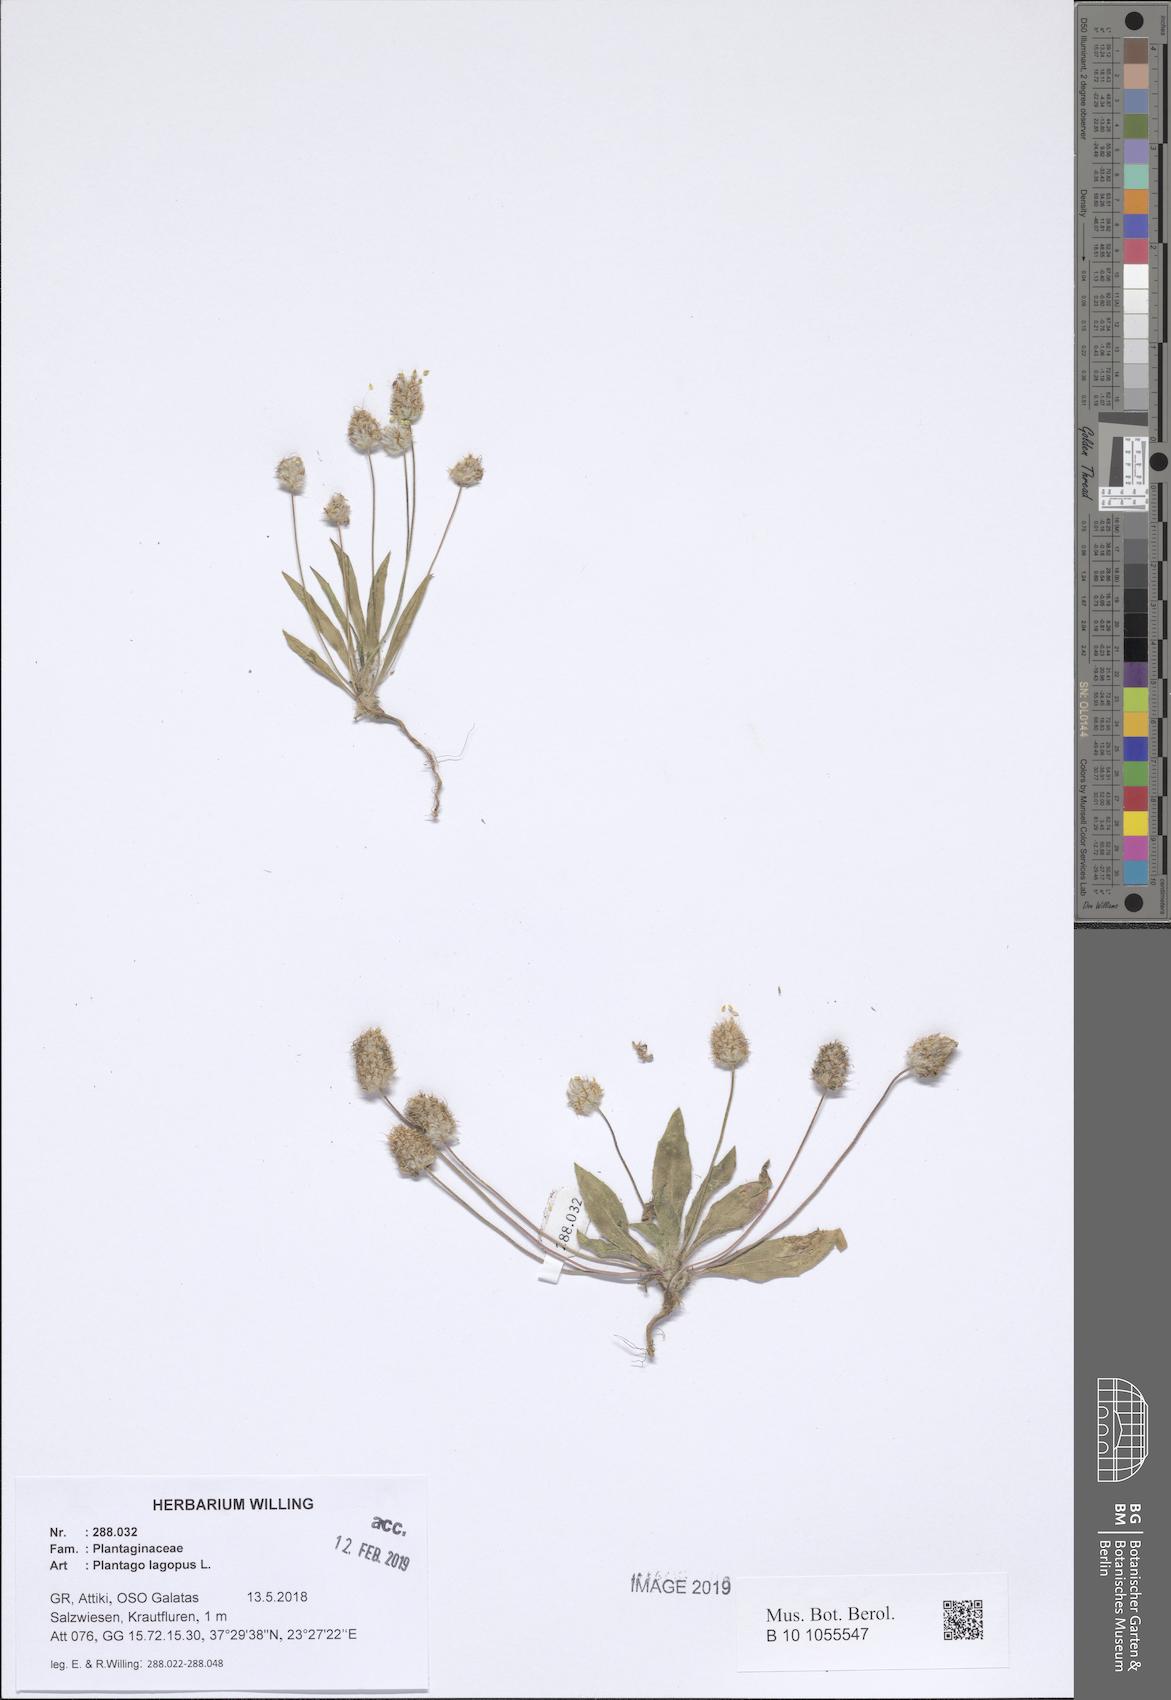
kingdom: Plantae
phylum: Tracheophyta
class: Magnoliopsida
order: Lamiales
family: Plantaginaceae
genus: Plantago
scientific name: Plantago lagopus
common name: Hare-foot plantain
